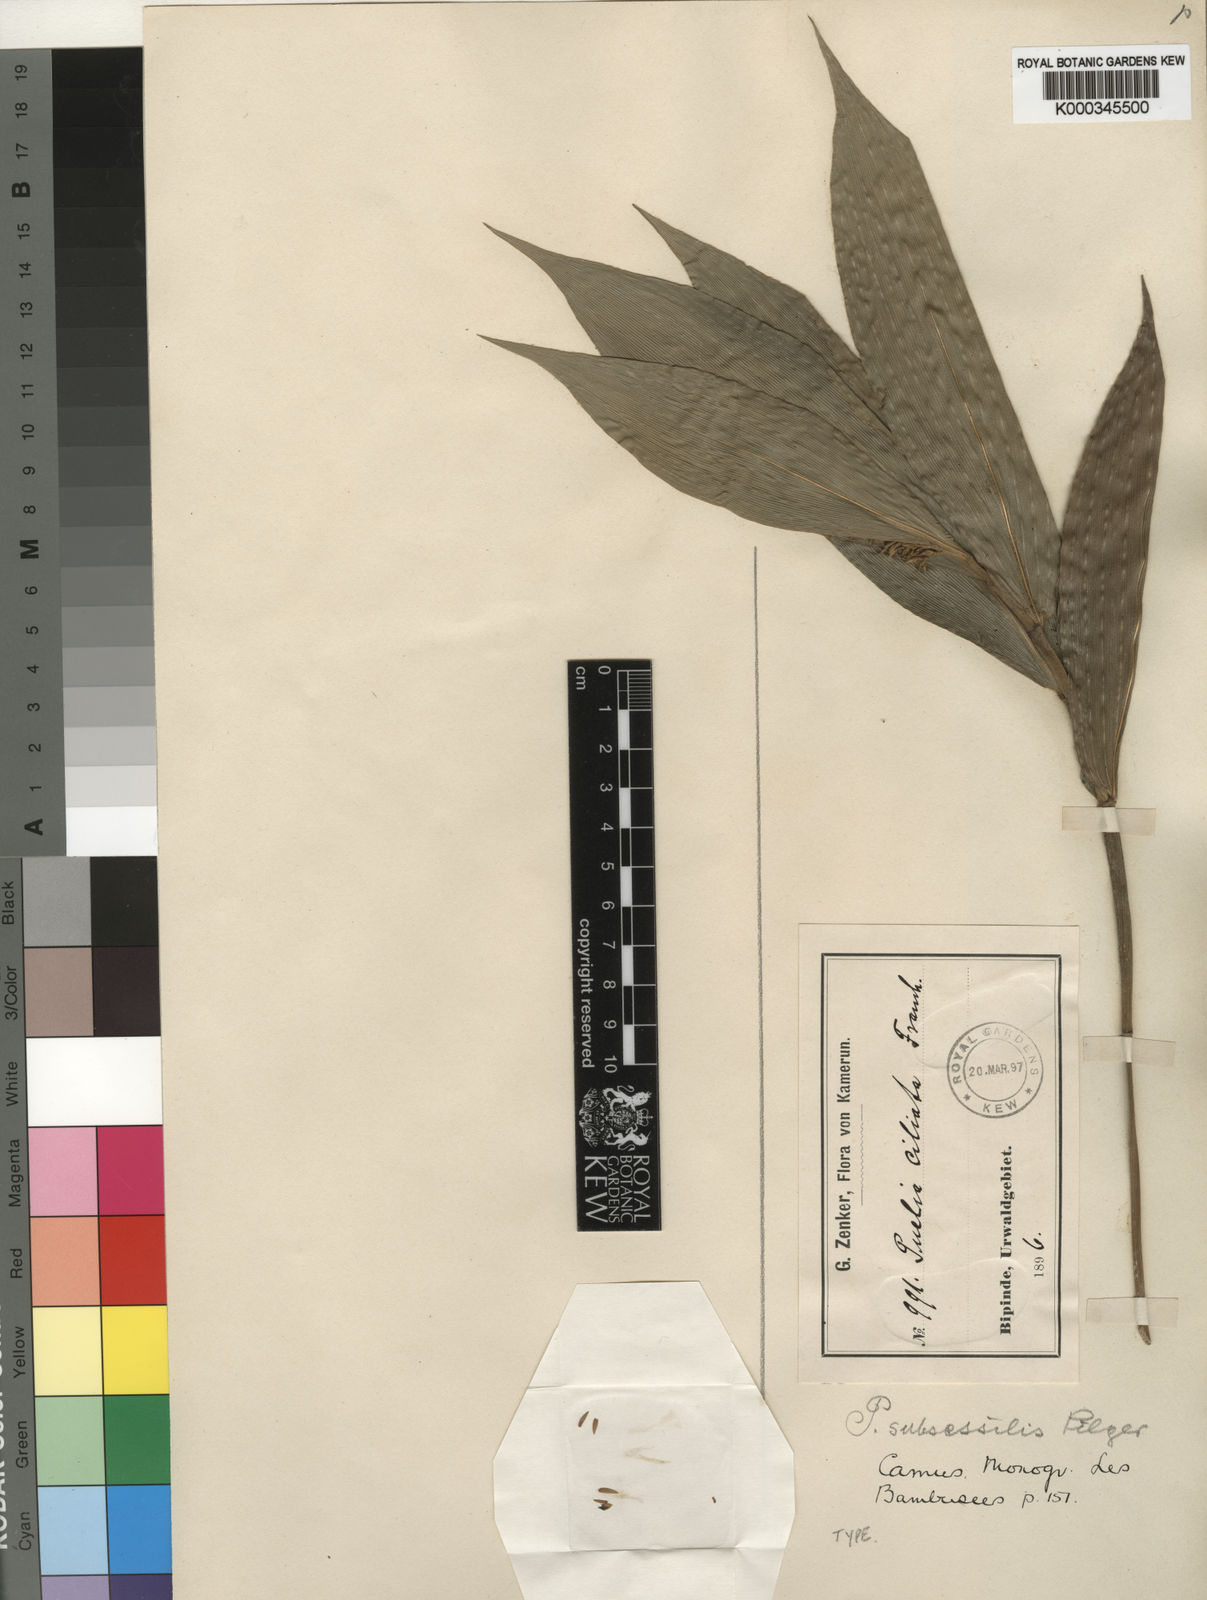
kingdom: Plantae
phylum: Tracheophyta
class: Liliopsida
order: Poales
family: Poaceae
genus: Puelia
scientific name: Puelia ciliata
